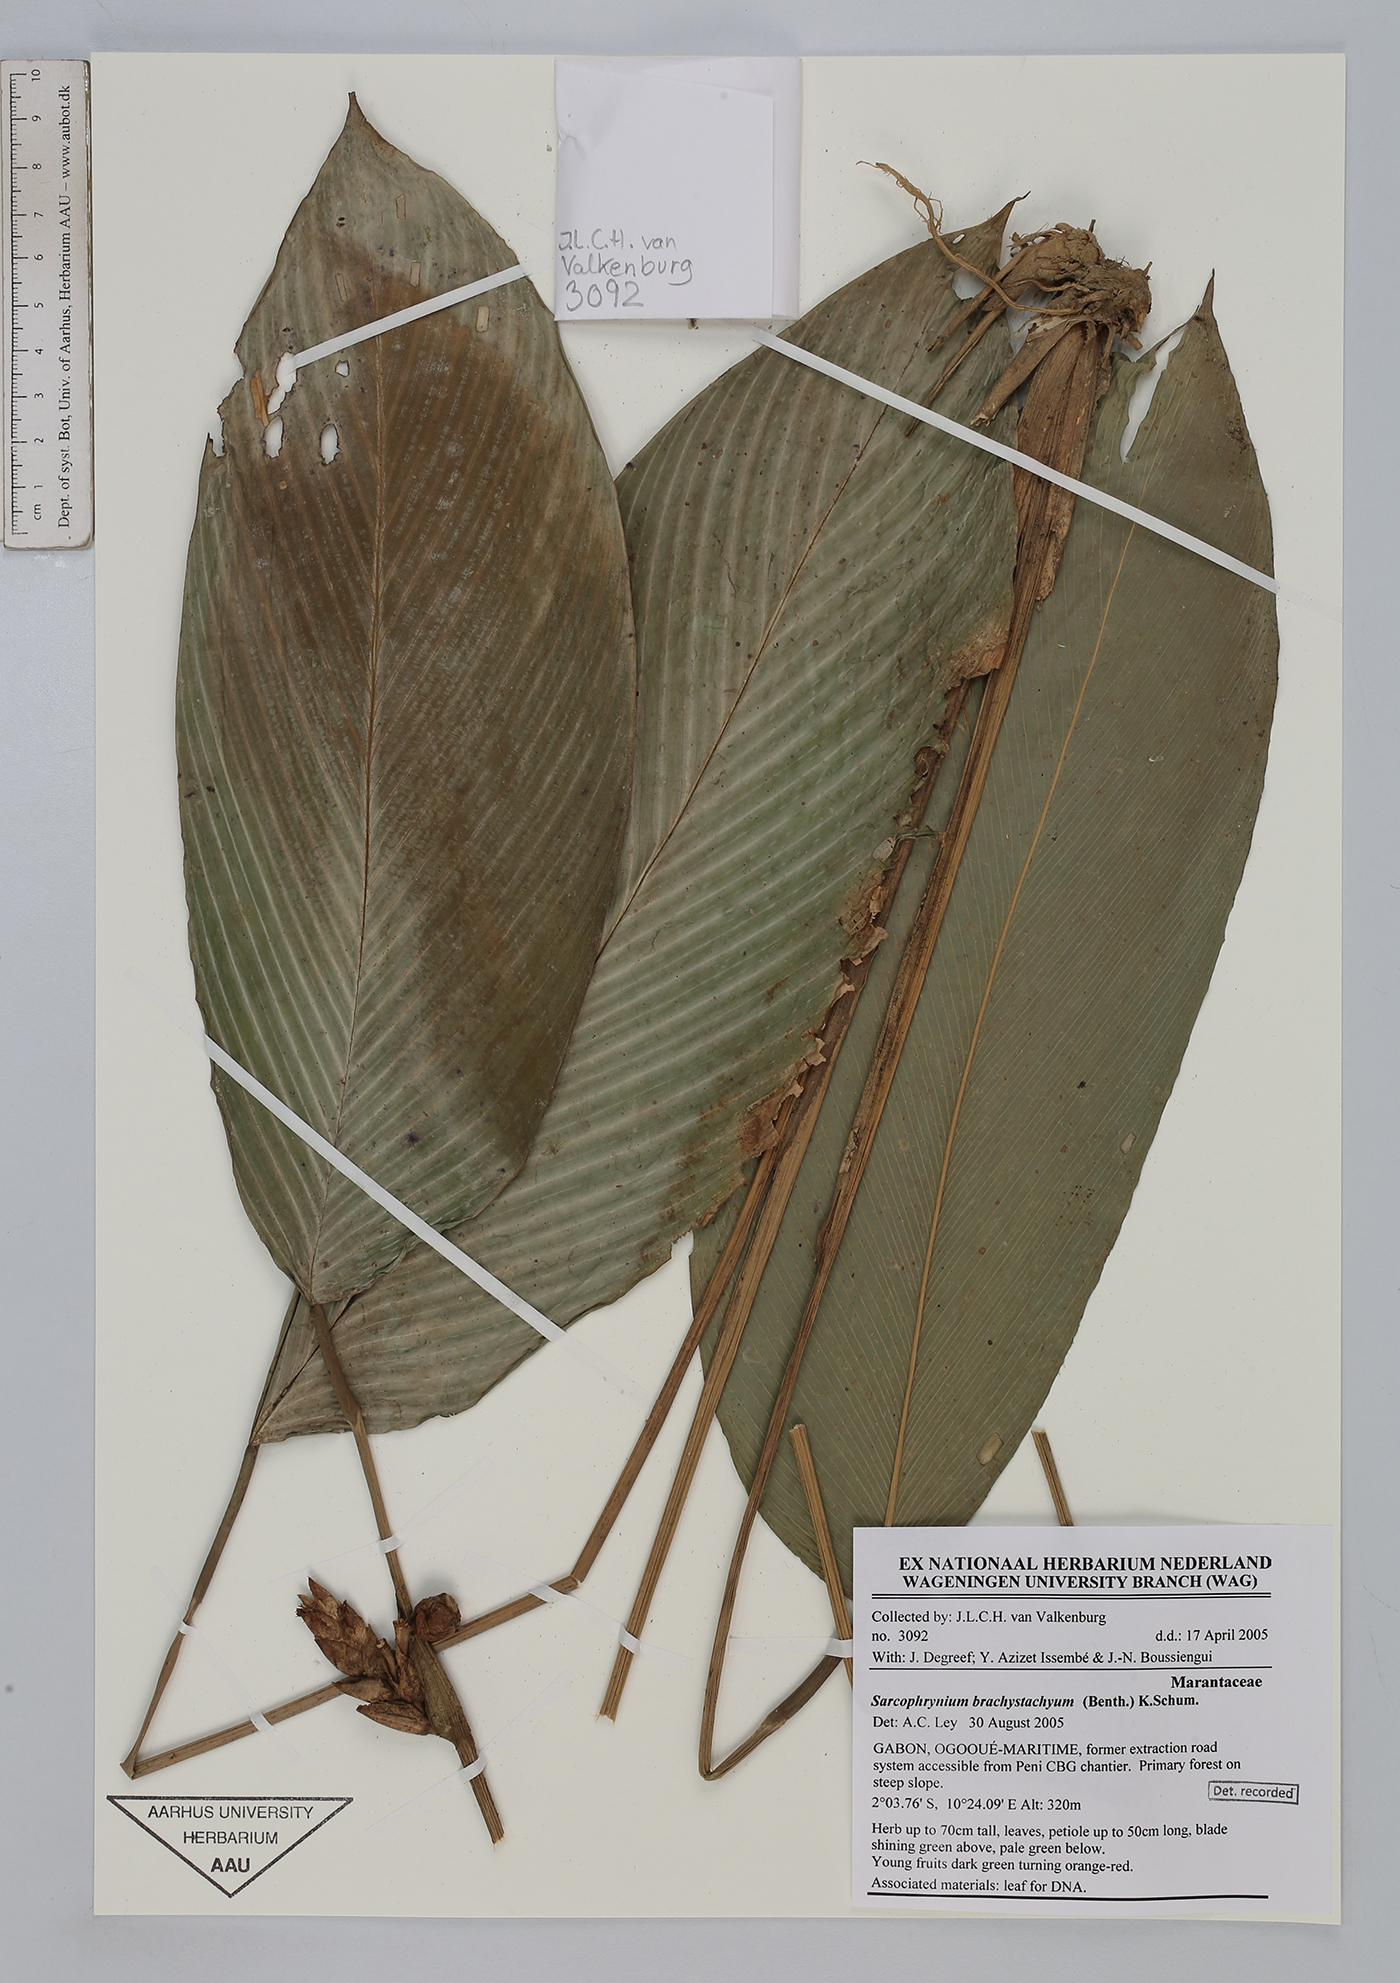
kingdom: Plantae
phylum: Tracheophyta
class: Liliopsida
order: Zingiberales
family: Marantaceae
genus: Sarcophrynium
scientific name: Sarcophrynium brachystachyum
